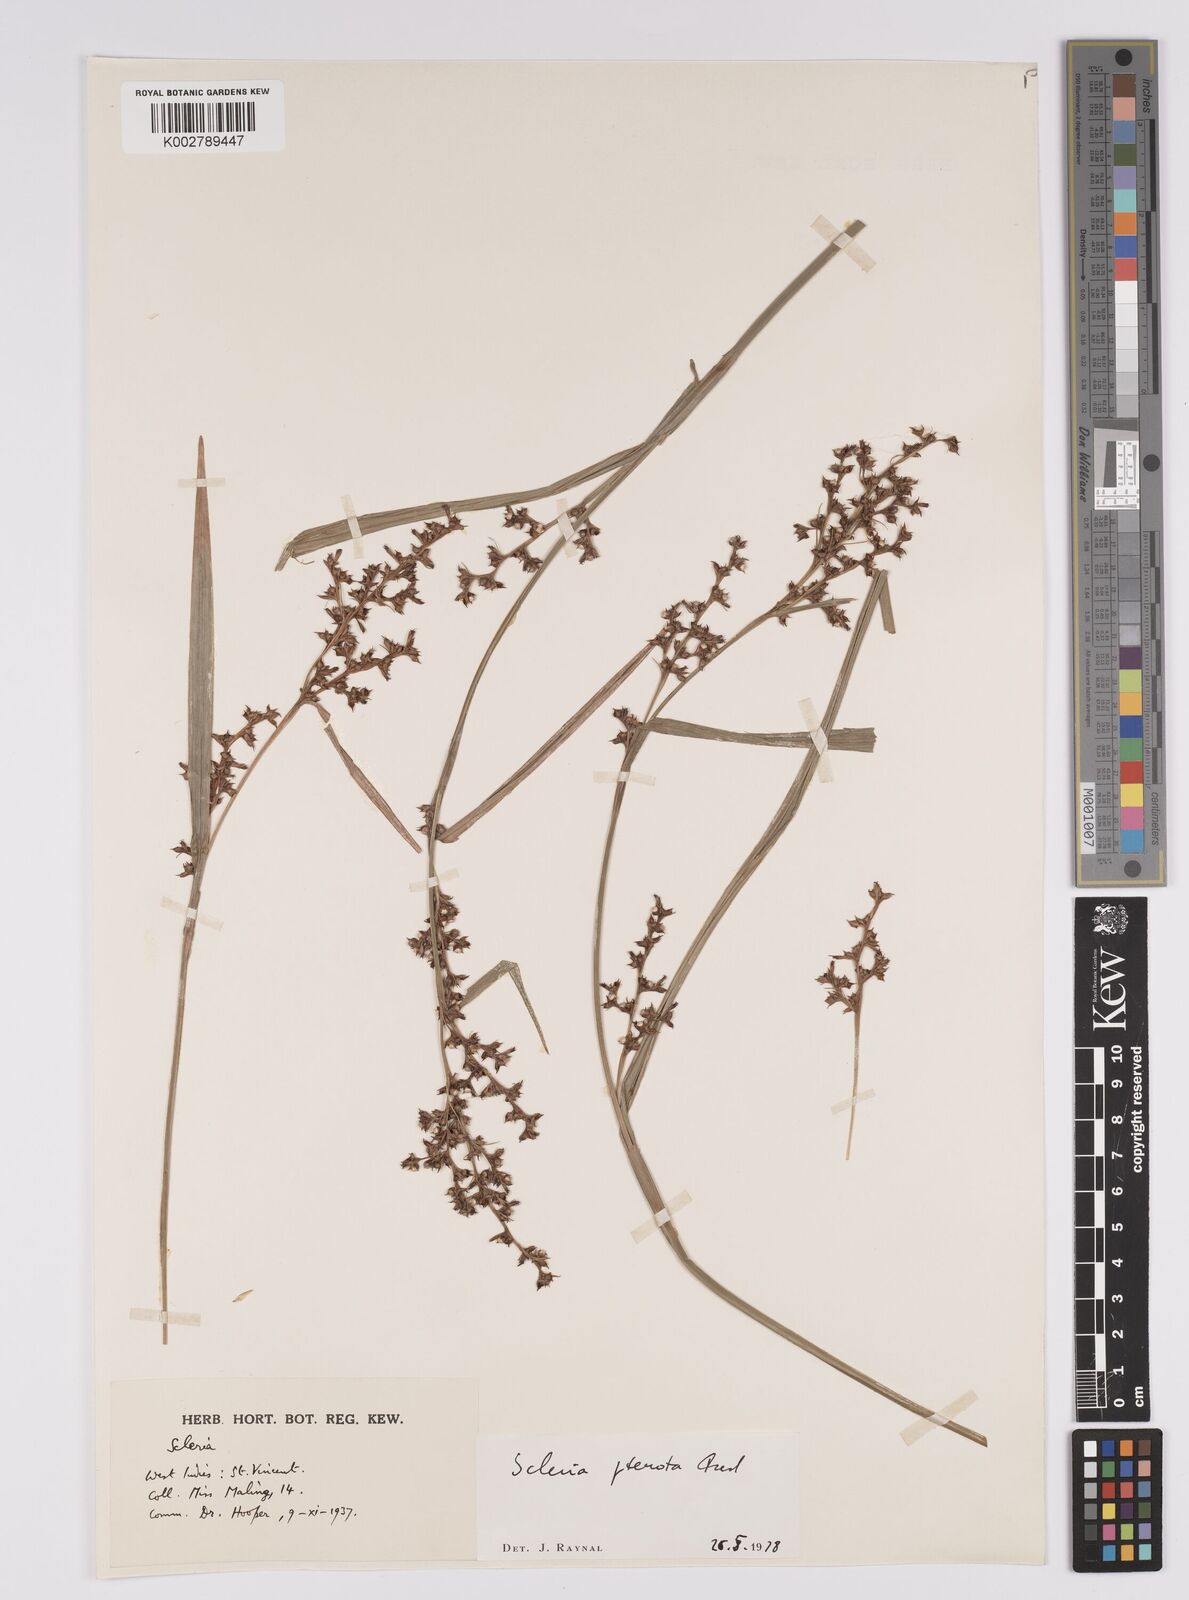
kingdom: Plantae
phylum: Tracheophyta
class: Liliopsida
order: Poales
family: Cyperaceae
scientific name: Cyperaceae
